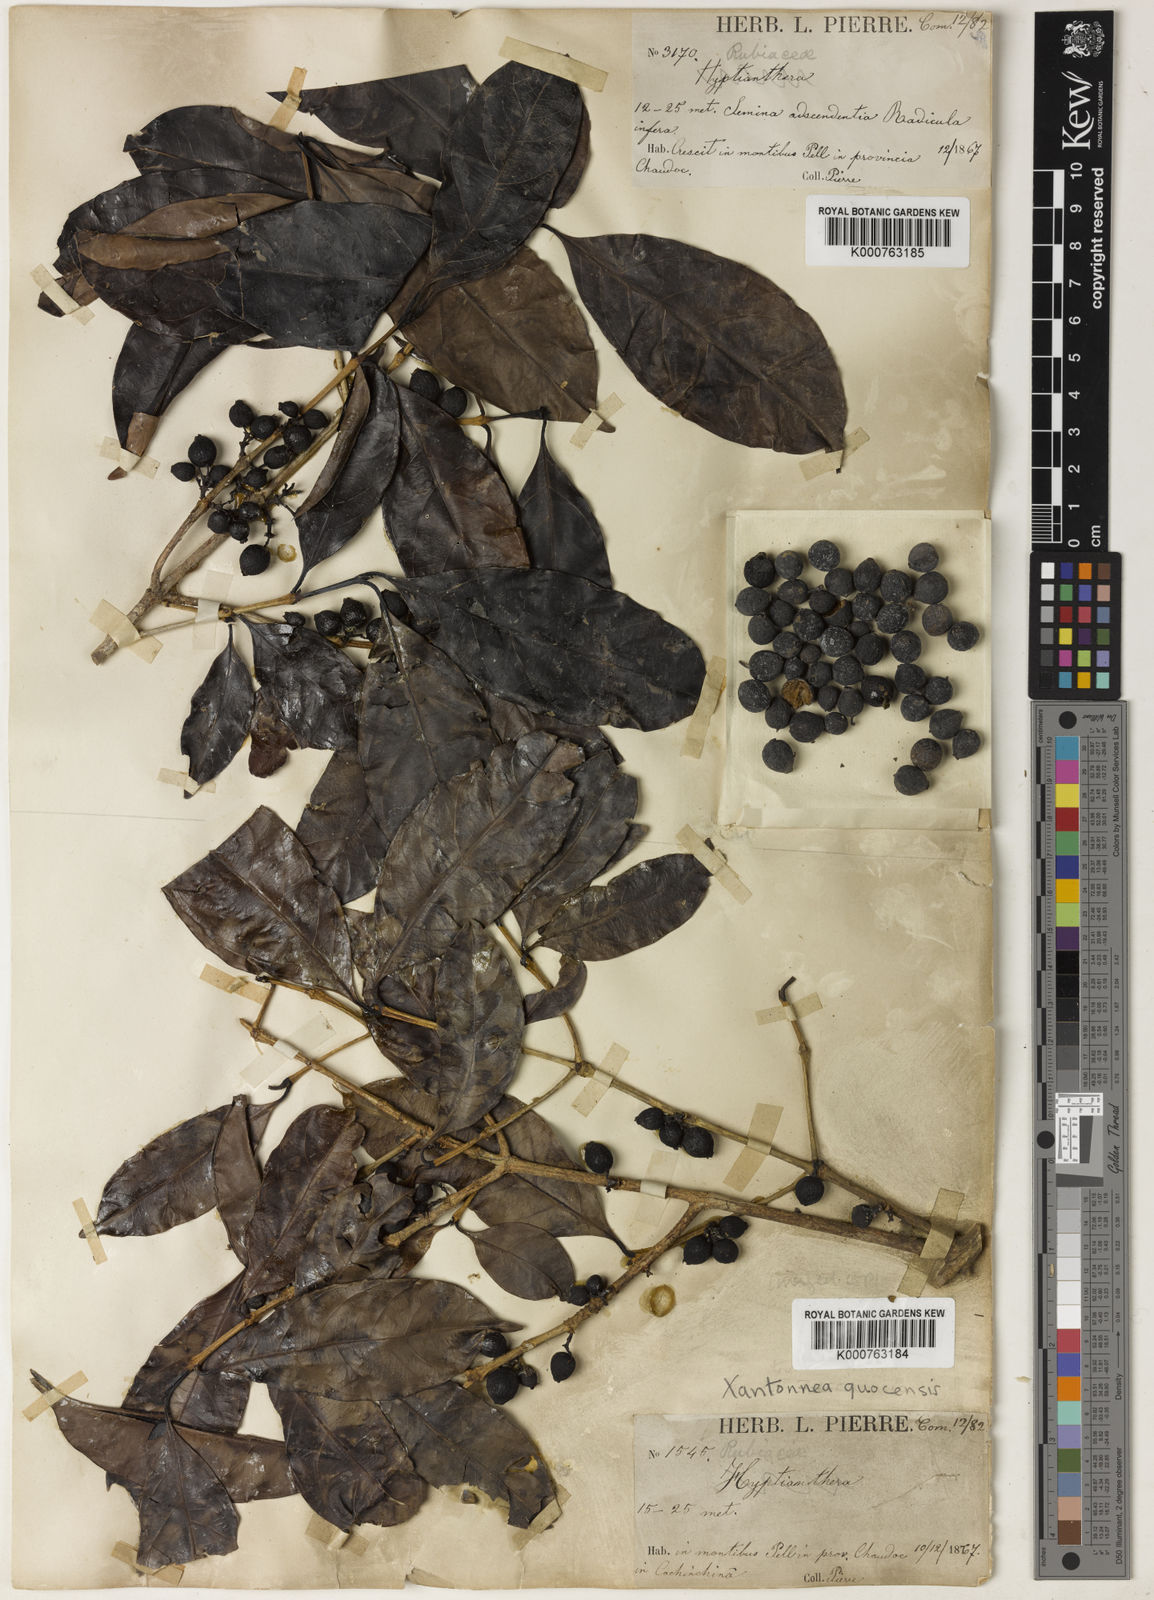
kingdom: Plantae
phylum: Tracheophyta
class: Magnoliopsida
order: Gentianales
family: Rubiaceae
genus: Discospermum
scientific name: Discospermum quocensis
